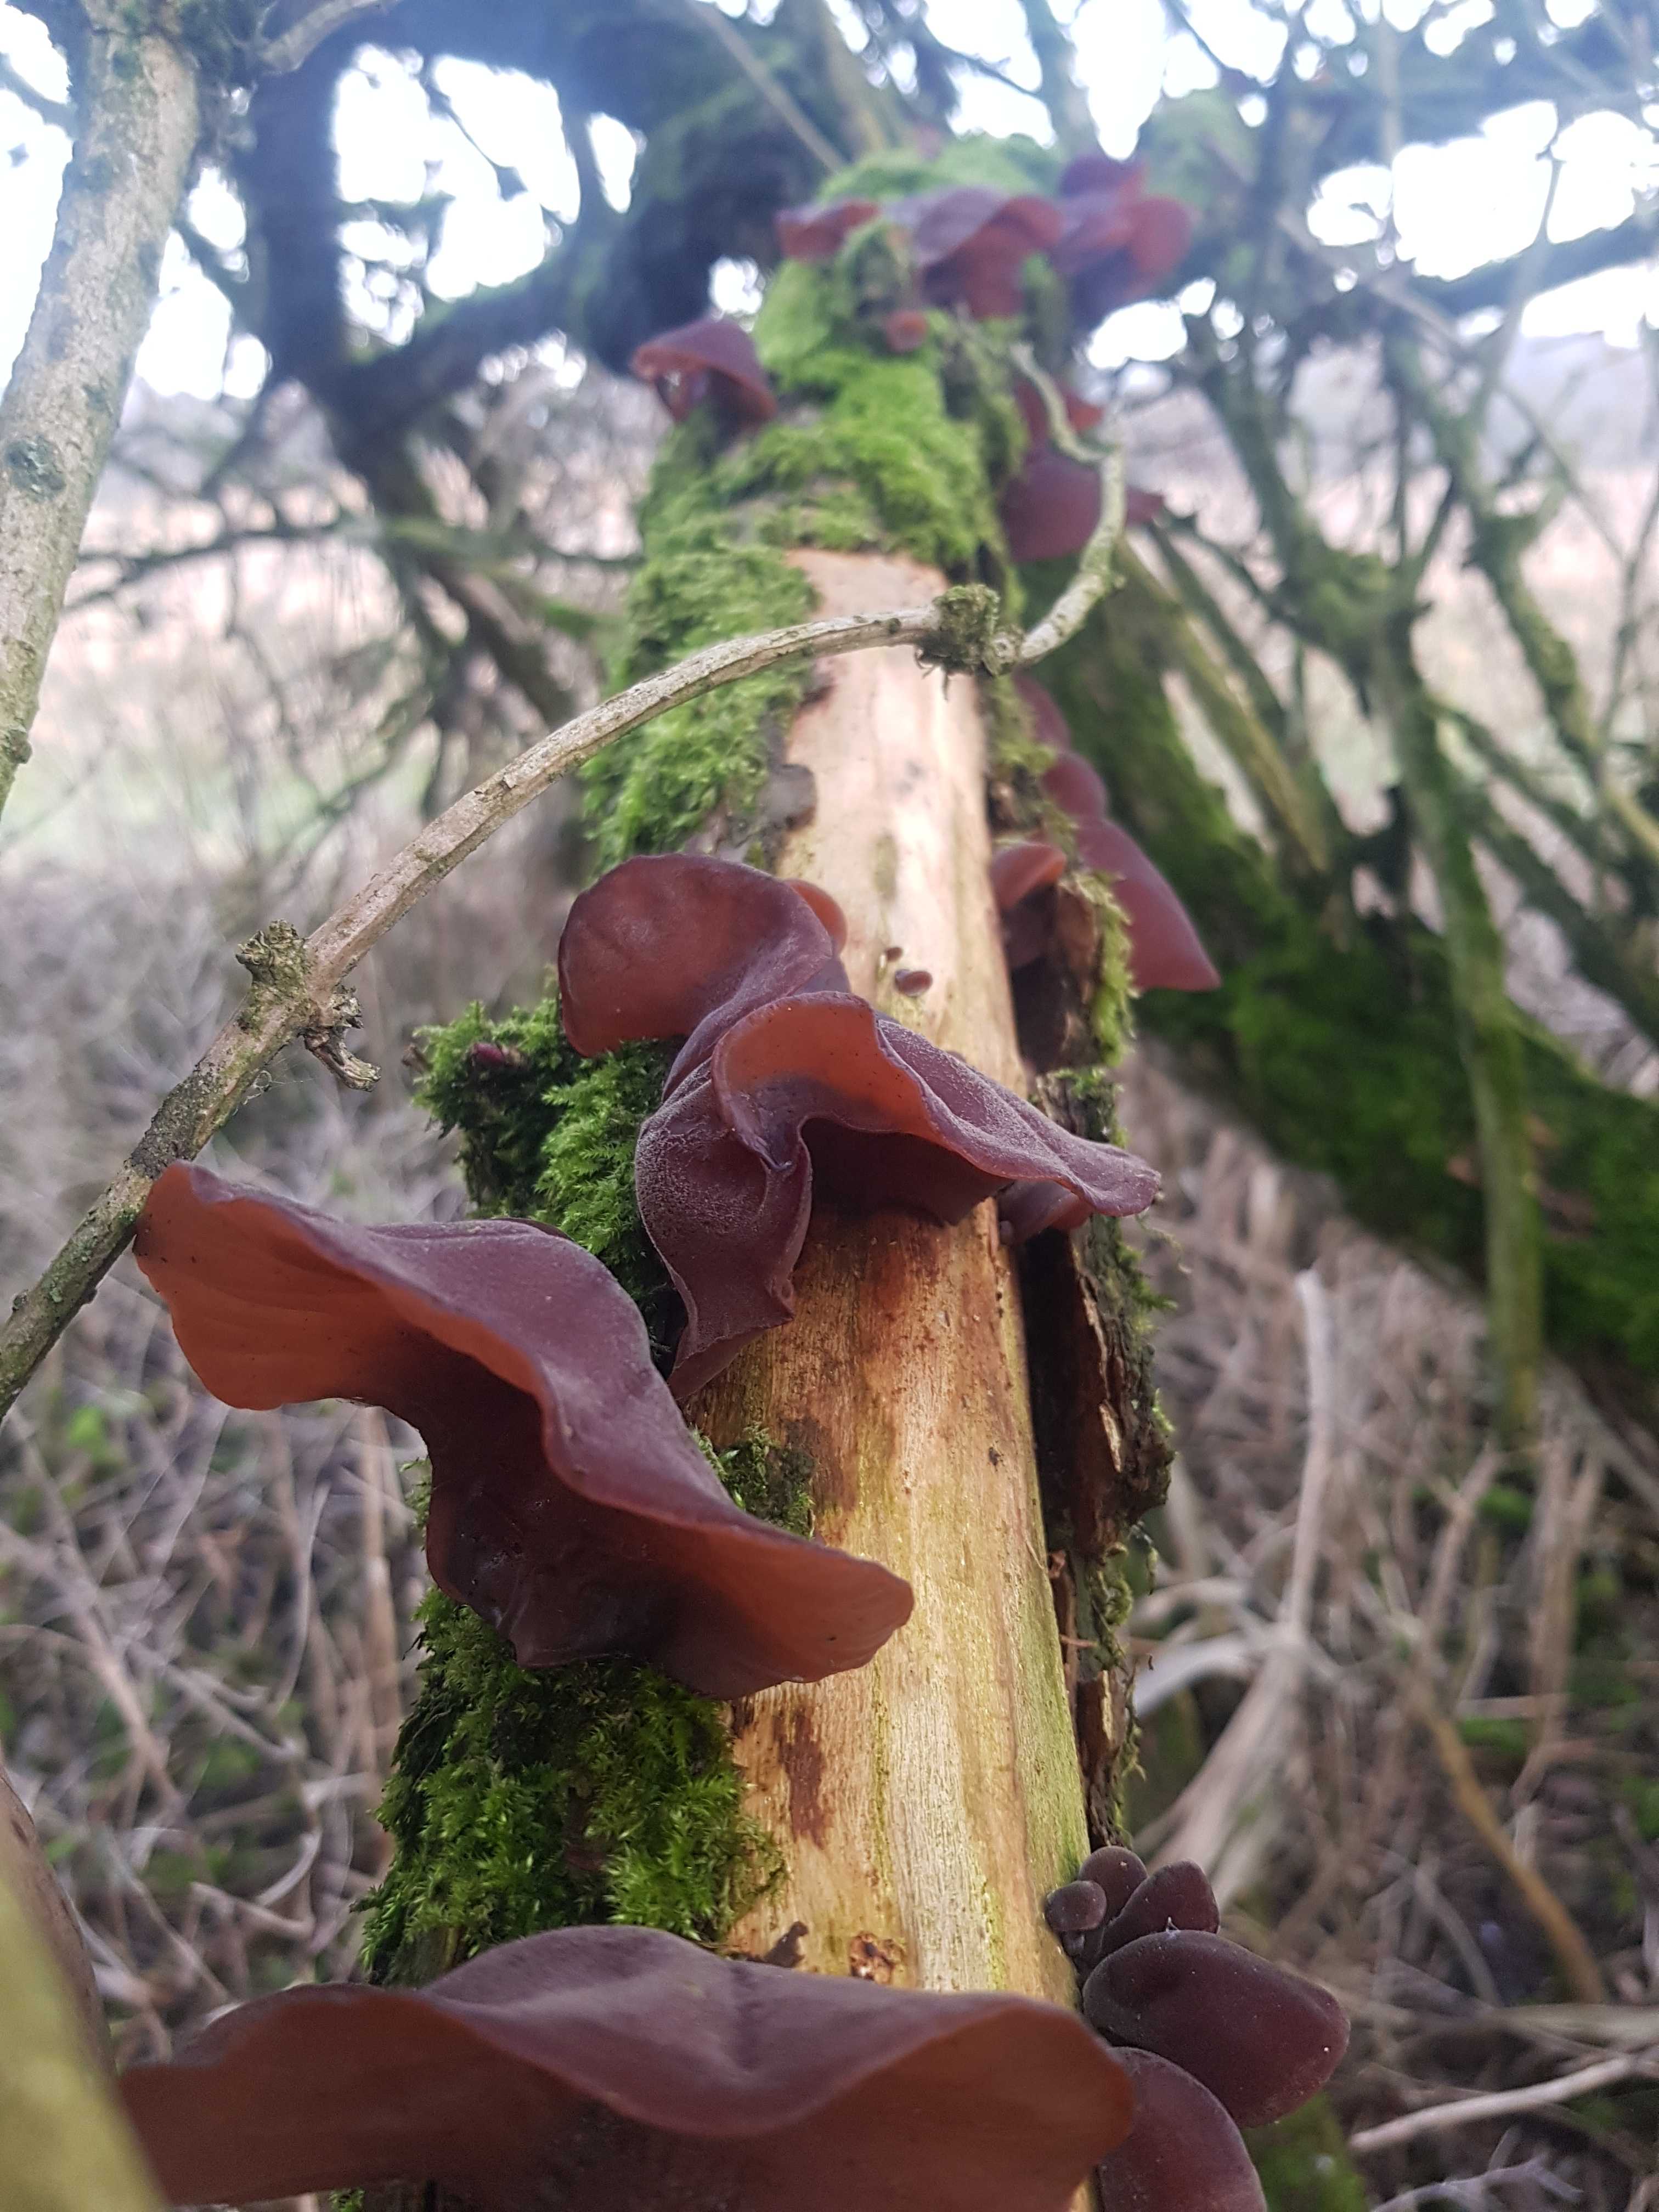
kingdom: Fungi
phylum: Basidiomycota
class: Agaricomycetes
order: Auriculariales
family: Auriculariaceae
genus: Auricularia
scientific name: Auricularia auricula-judae
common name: almindelig judasøre
